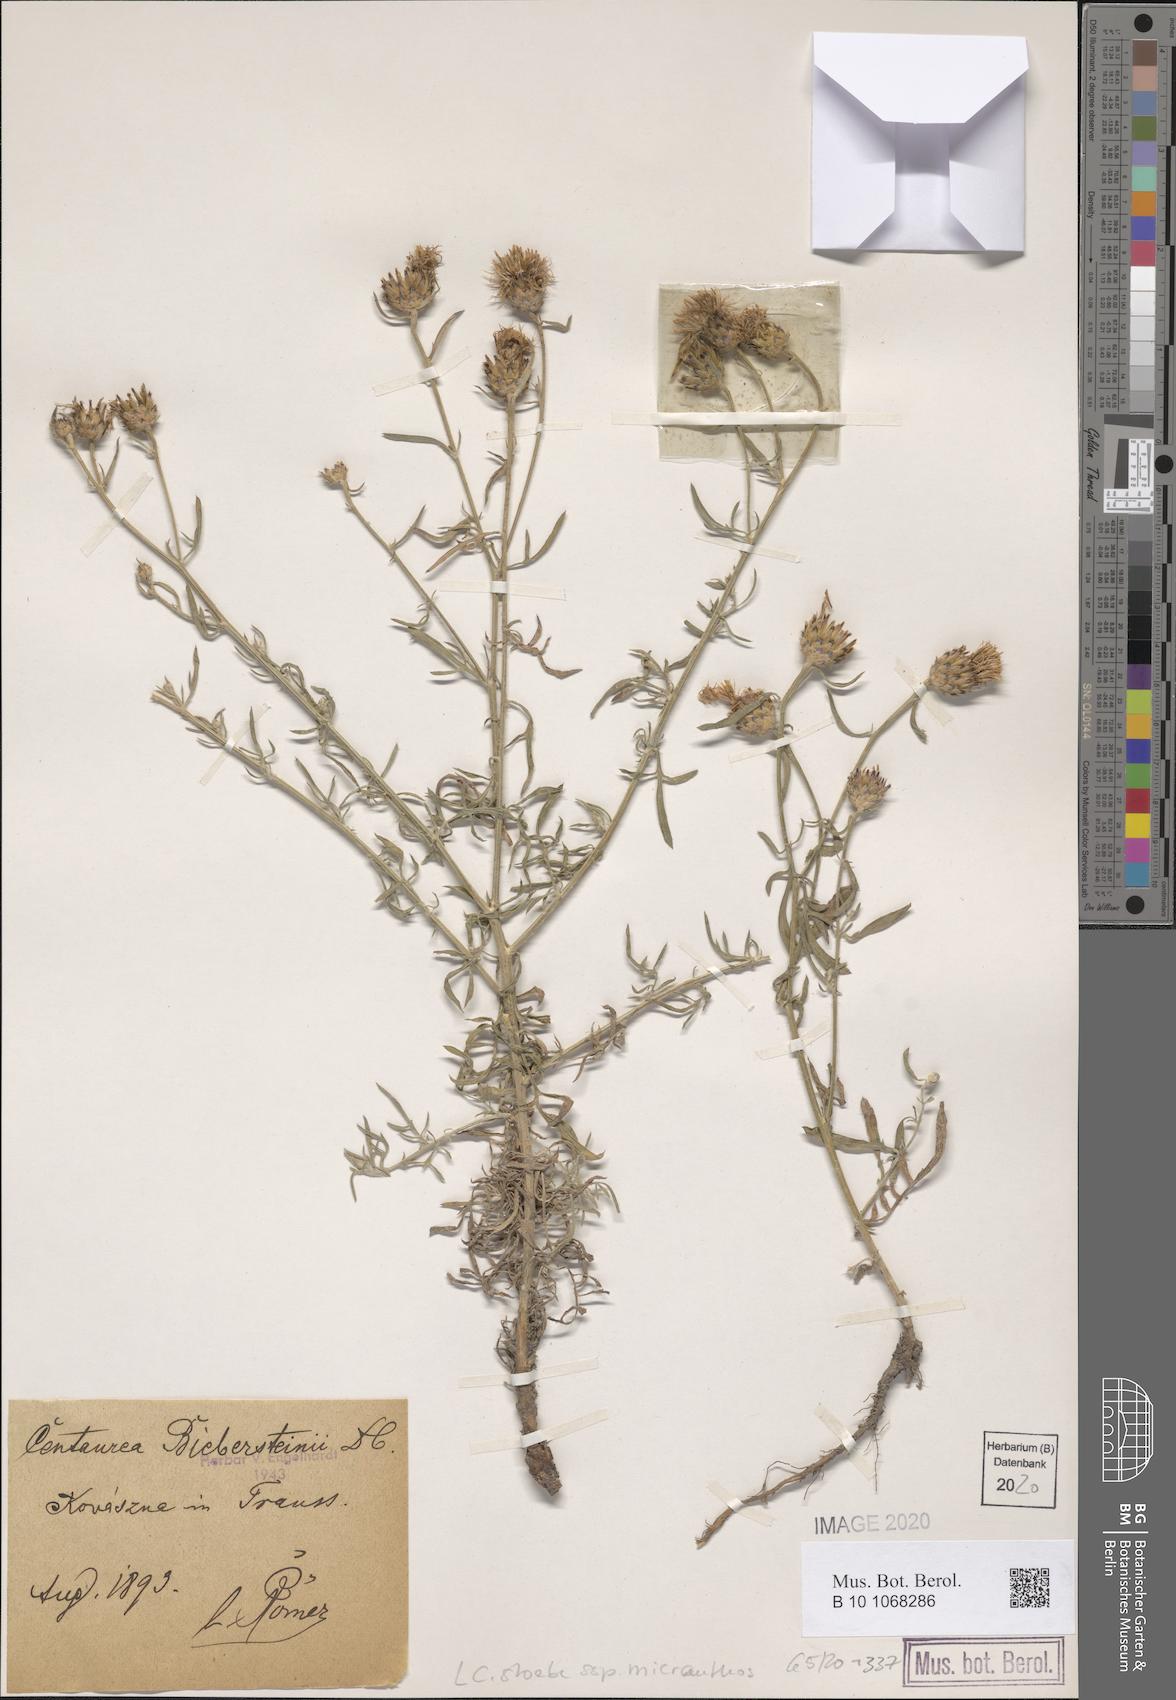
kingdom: Plantae
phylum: Tracheophyta
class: Magnoliopsida
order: Asterales
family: Asteraceae
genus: Centaurea
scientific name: Centaurea australis
